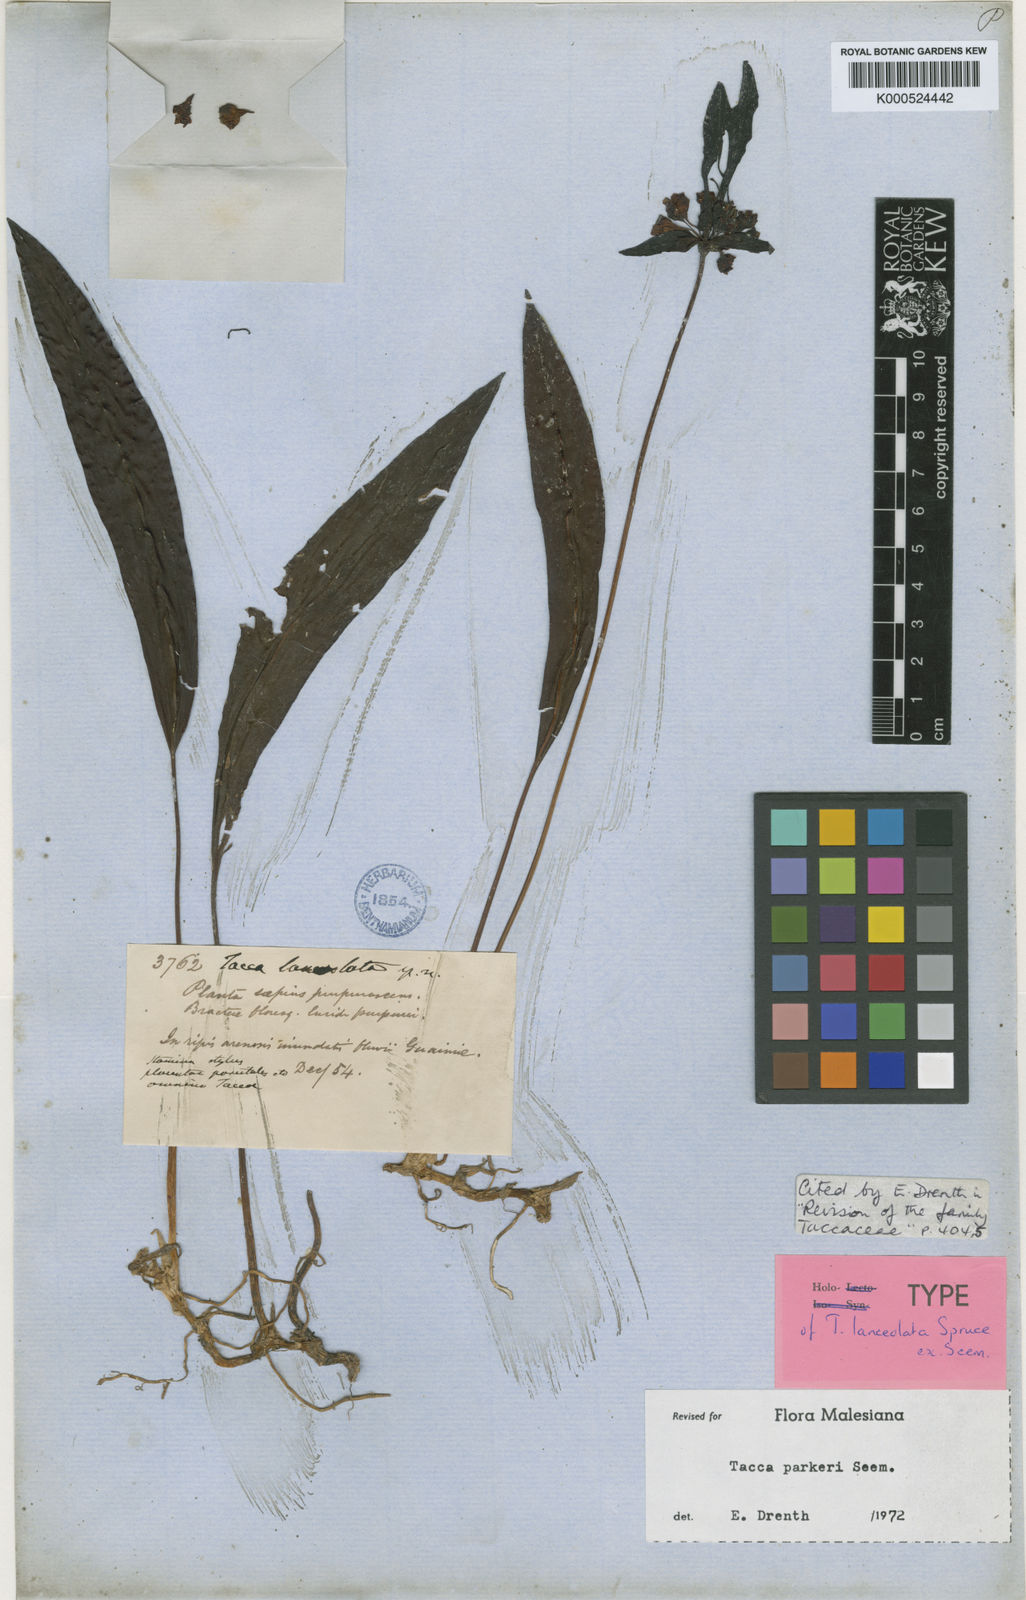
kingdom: Plantae
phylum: Tracheophyta
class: Liliopsida
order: Dioscoreales
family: Dioscoreaceae
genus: Tacca
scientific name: Tacca parkeri
